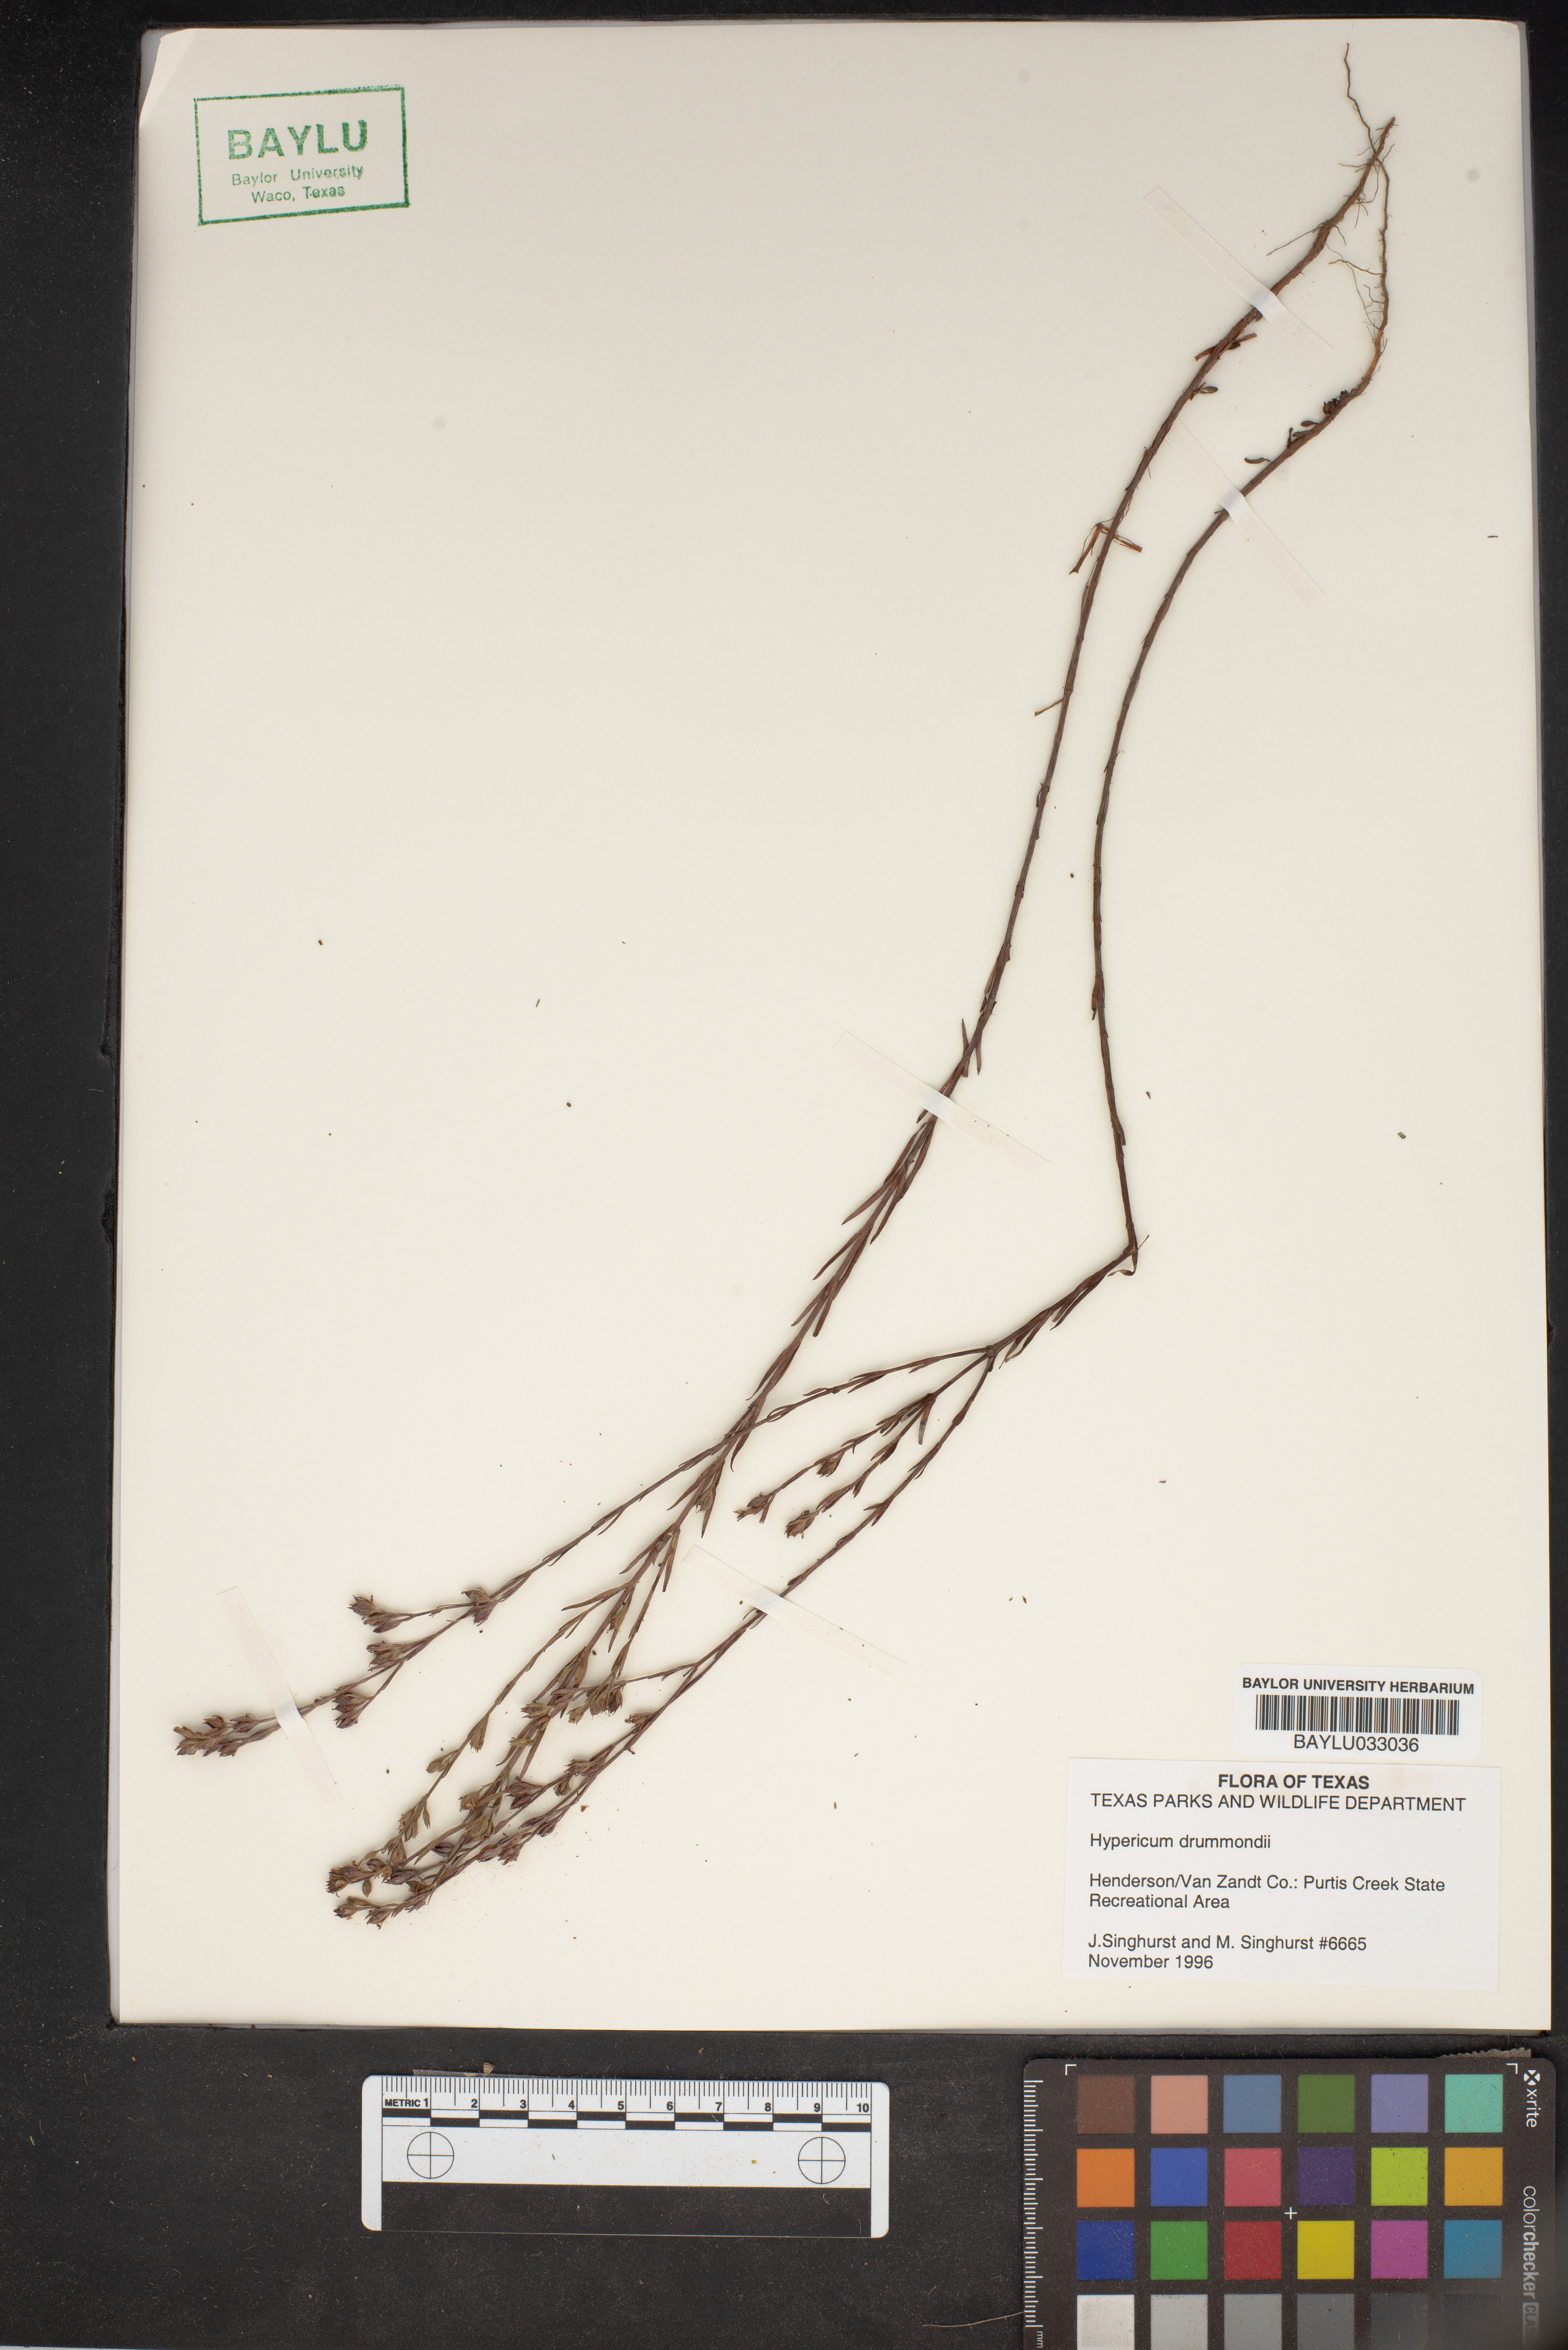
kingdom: Plantae
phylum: Tracheophyta
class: Magnoliopsida
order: Malpighiales
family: Hypericaceae
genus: Hypericum
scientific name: Hypericum drummondii
